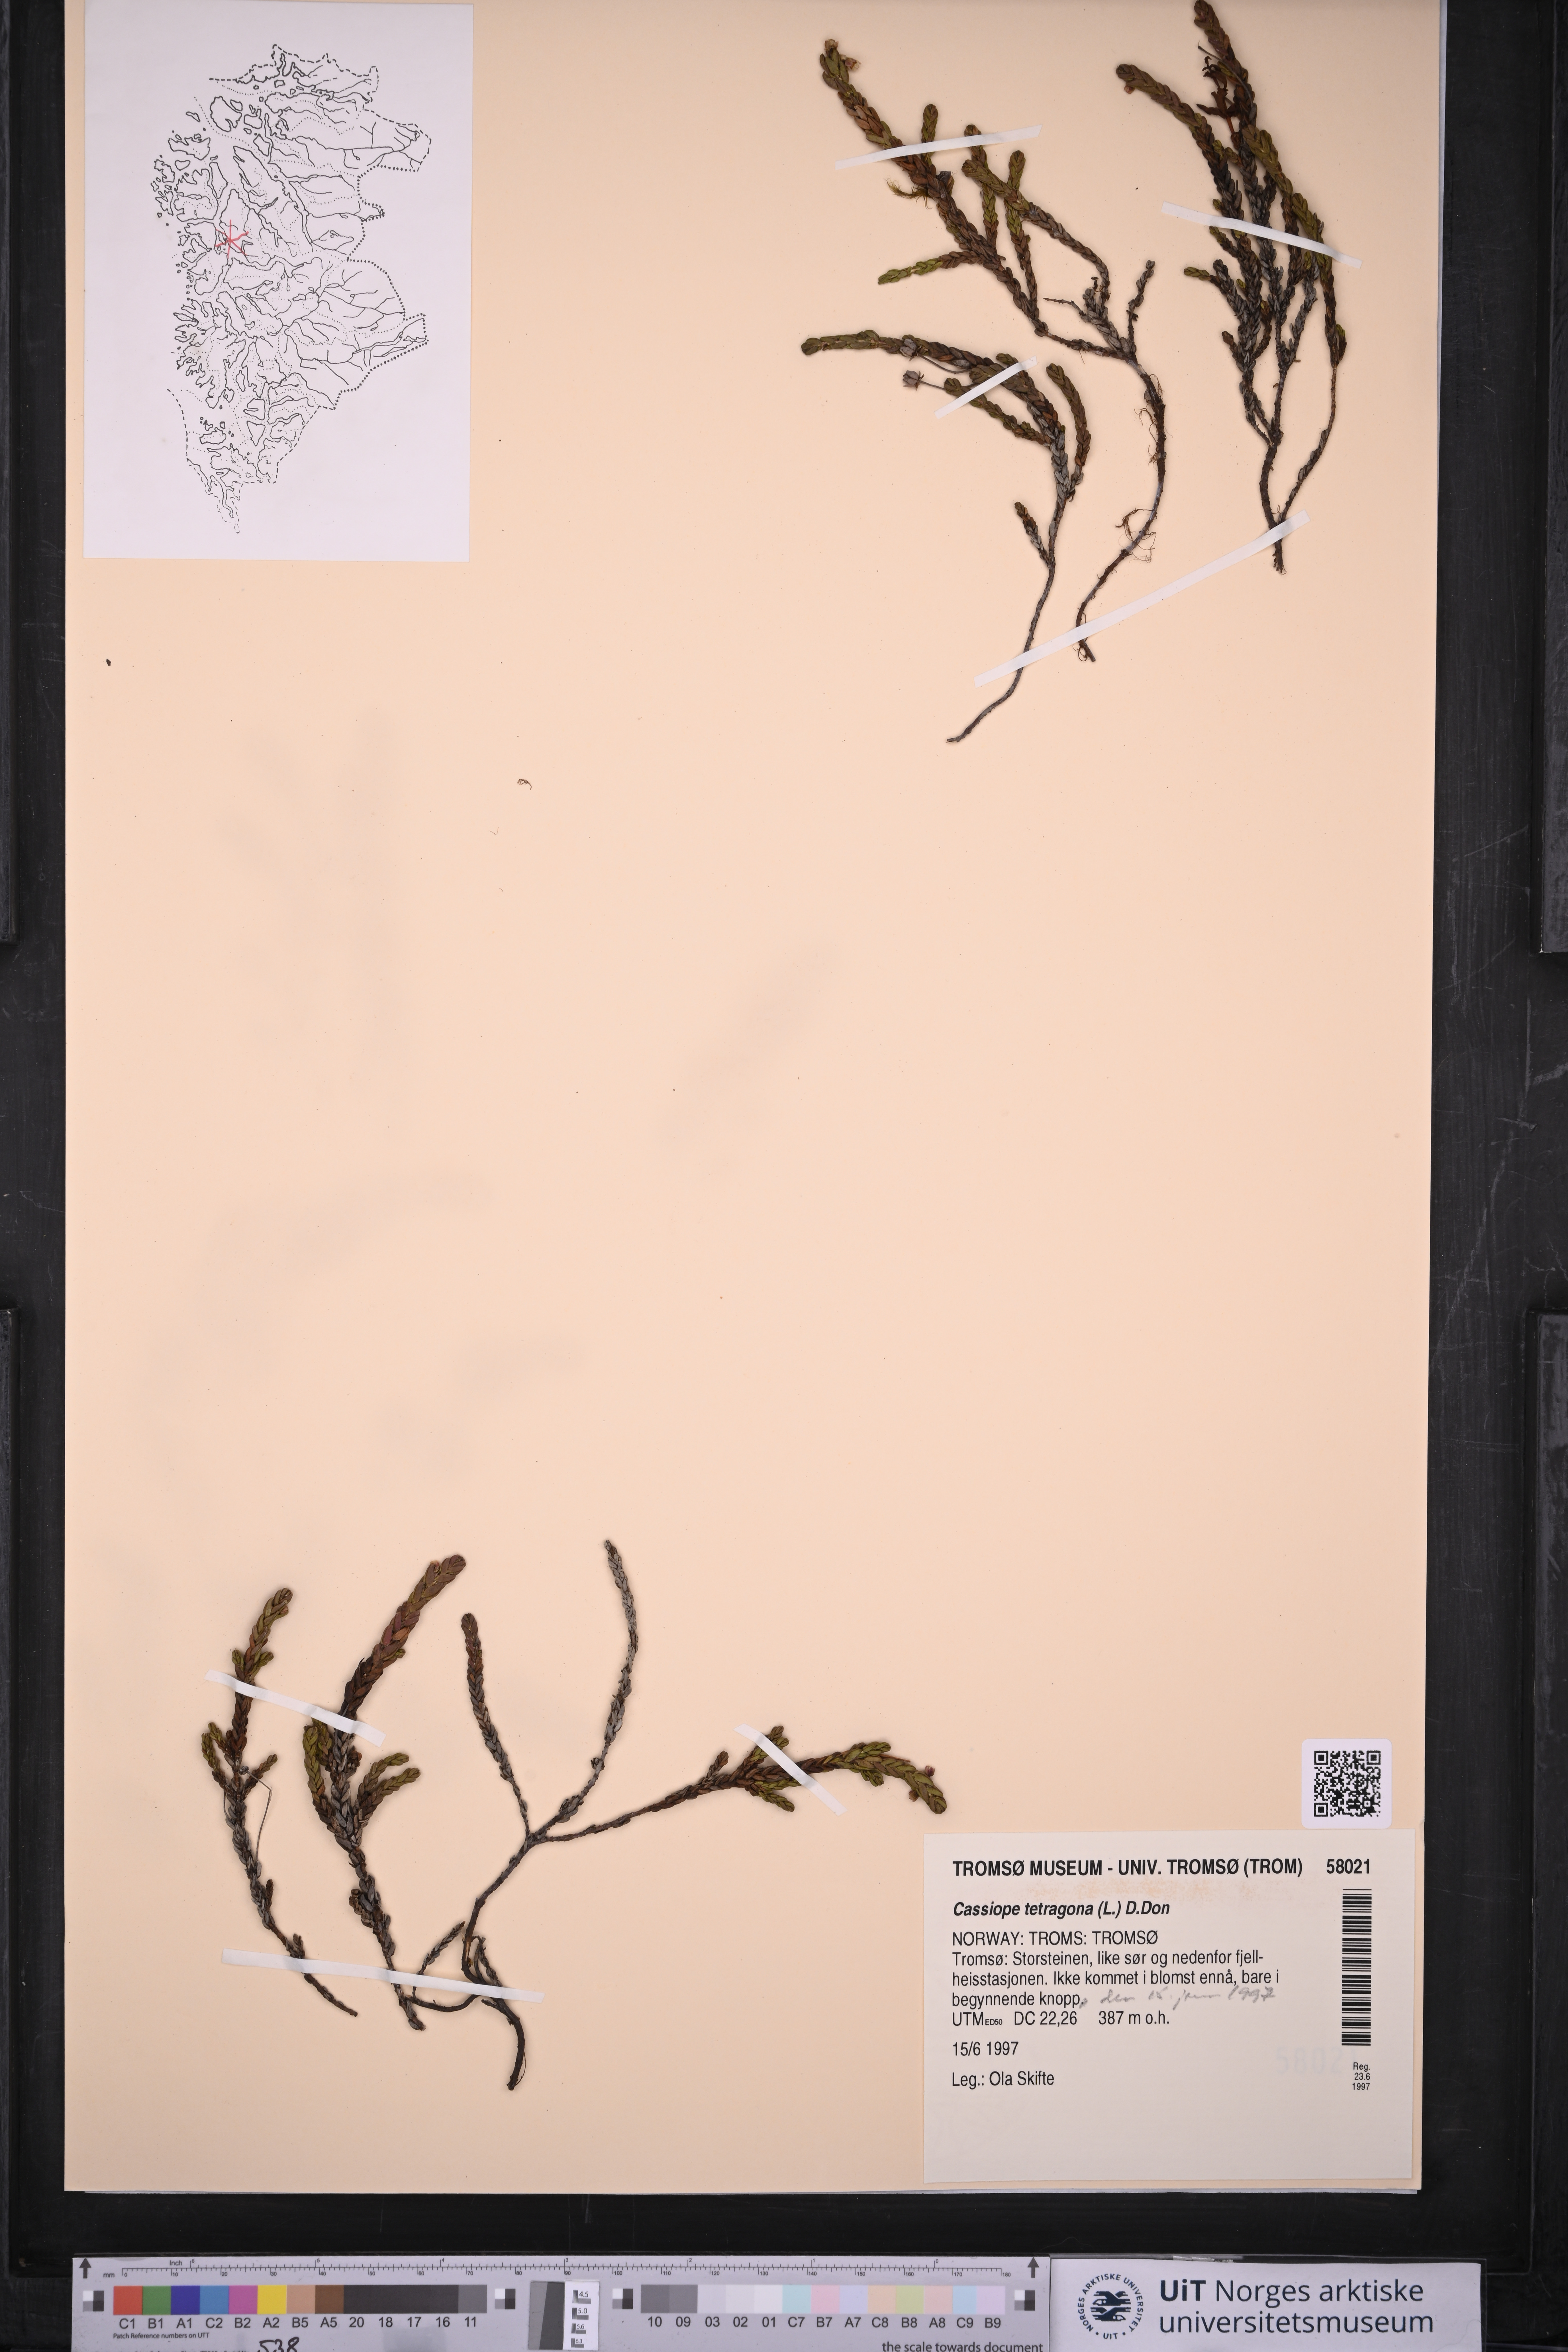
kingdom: Plantae
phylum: Tracheophyta
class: Magnoliopsida
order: Ericales
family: Ericaceae
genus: Cassiope
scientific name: Cassiope tetragona
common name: Arctic bell heather
